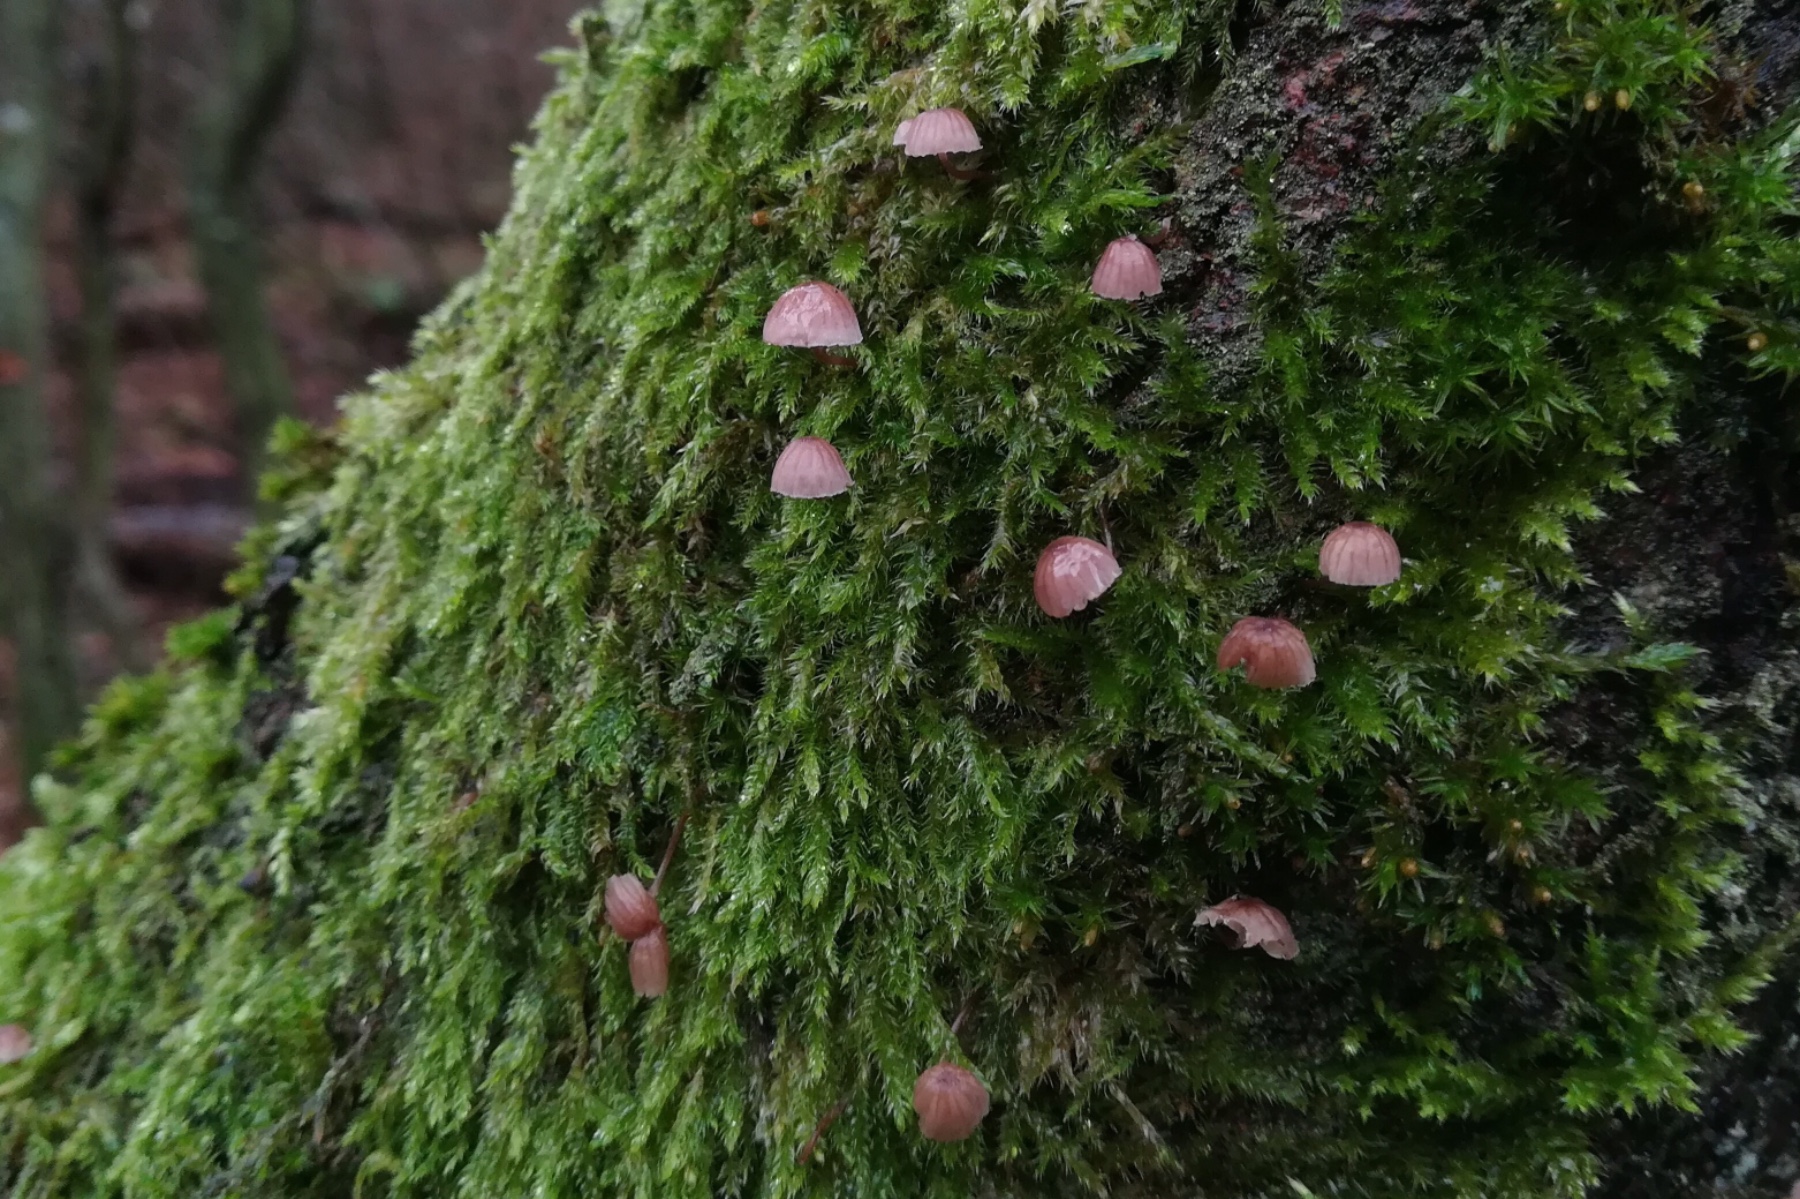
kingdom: Fungi
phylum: Basidiomycota
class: Agaricomycetes
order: Agaricales
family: Mycenaceae
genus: Mycena
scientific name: Mycena meliigena
